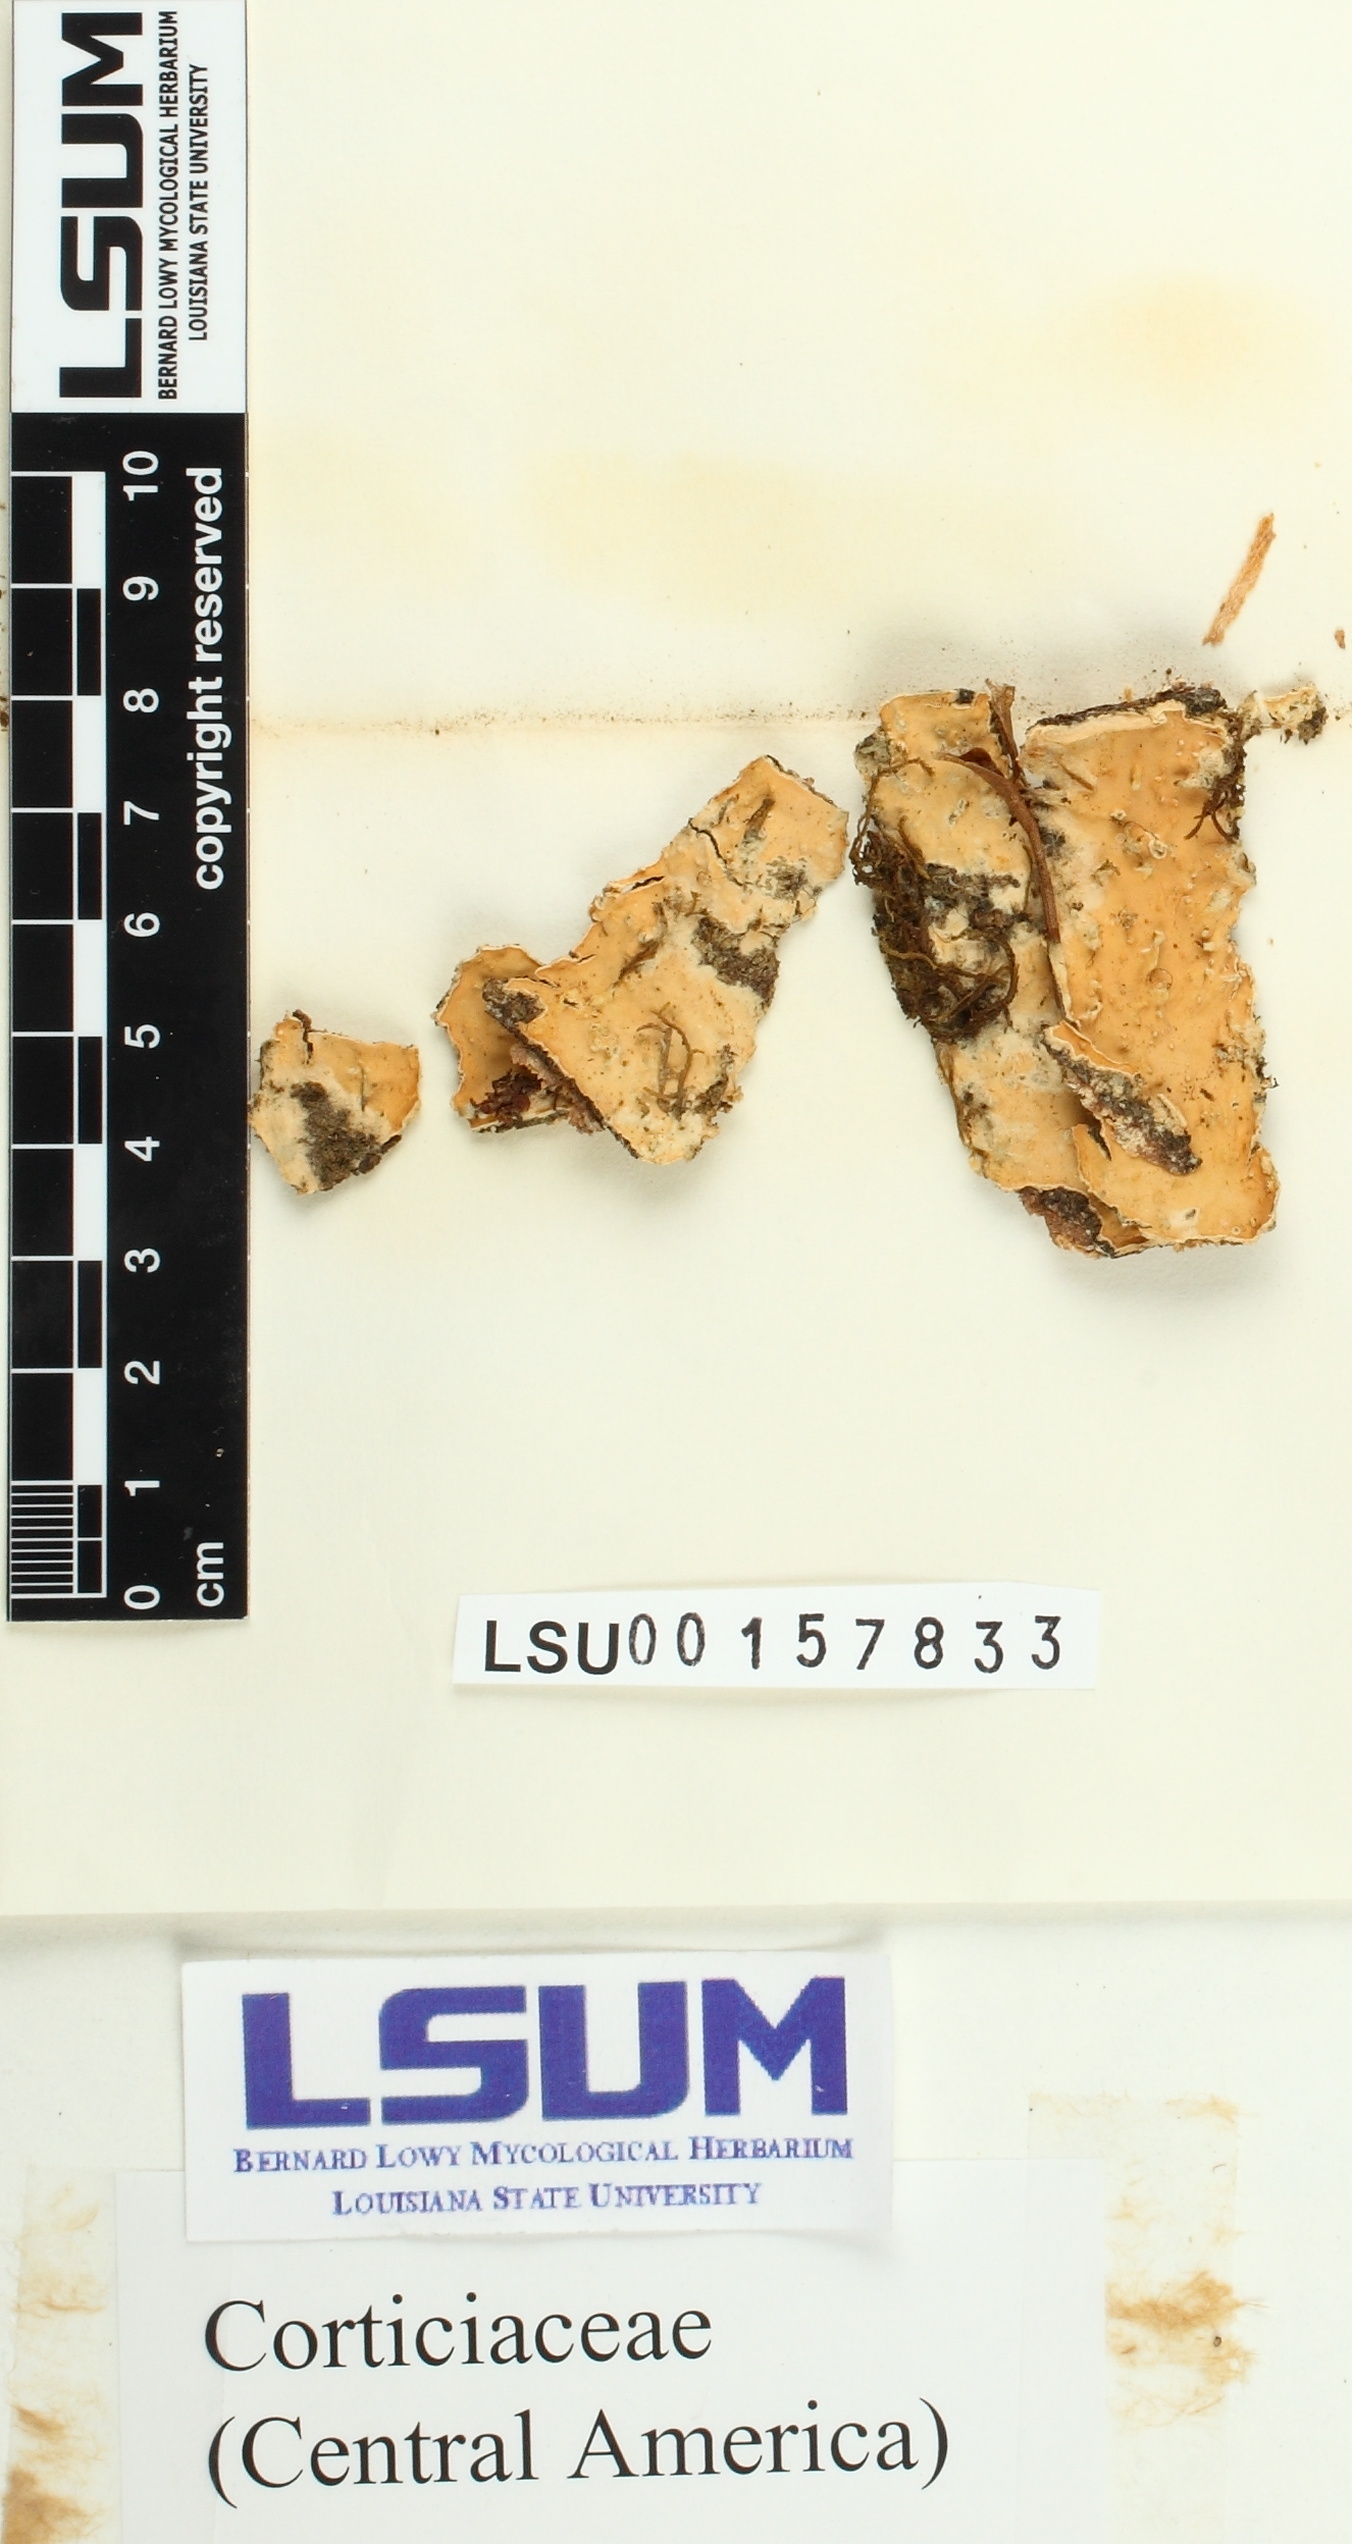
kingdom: Fungi
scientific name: Fungi
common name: Fungi
